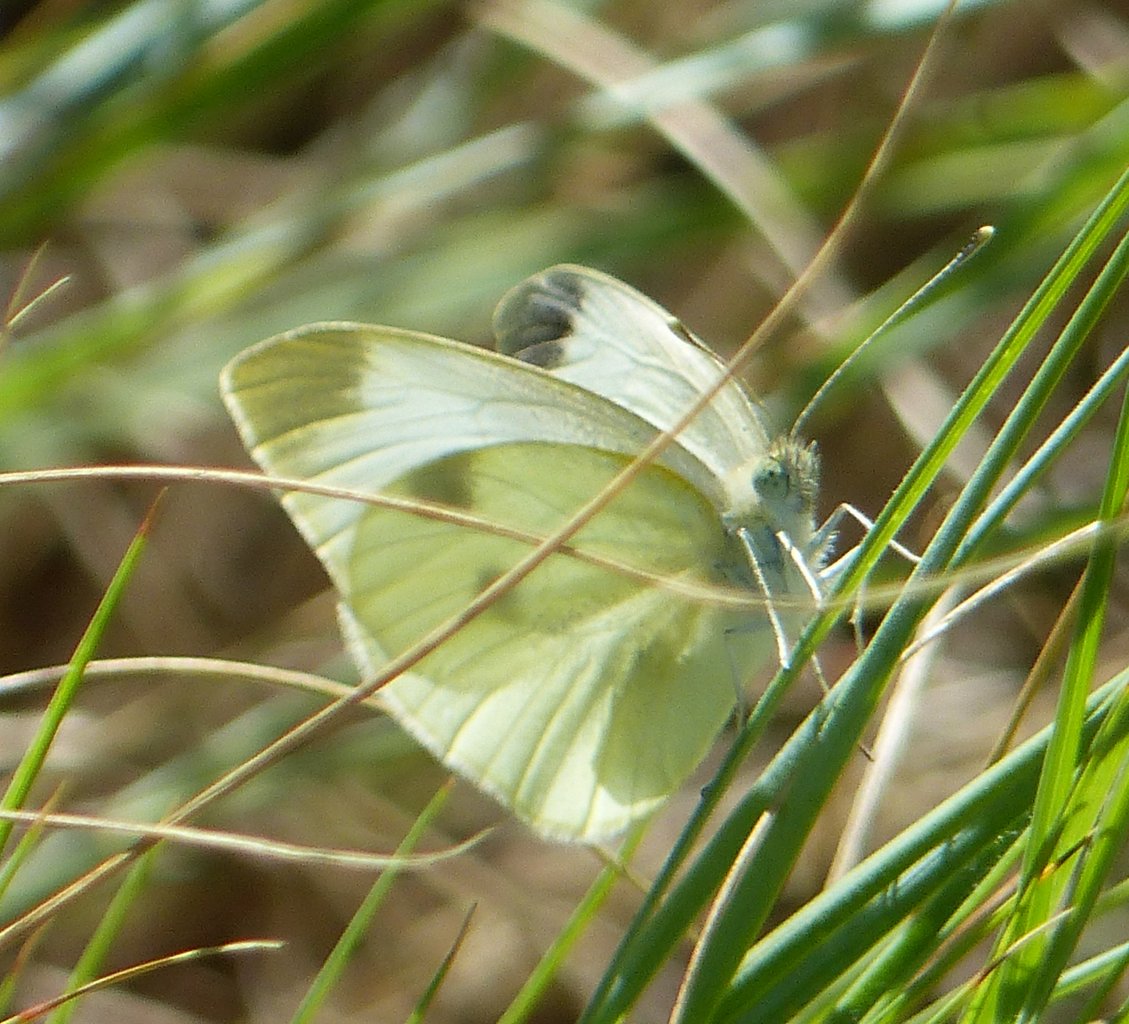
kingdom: Animalia
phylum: Arthropoda
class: Insecta
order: Lepidoptera
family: Pieridae
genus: Pieris
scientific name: Pieris rapae
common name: Cabbage White
